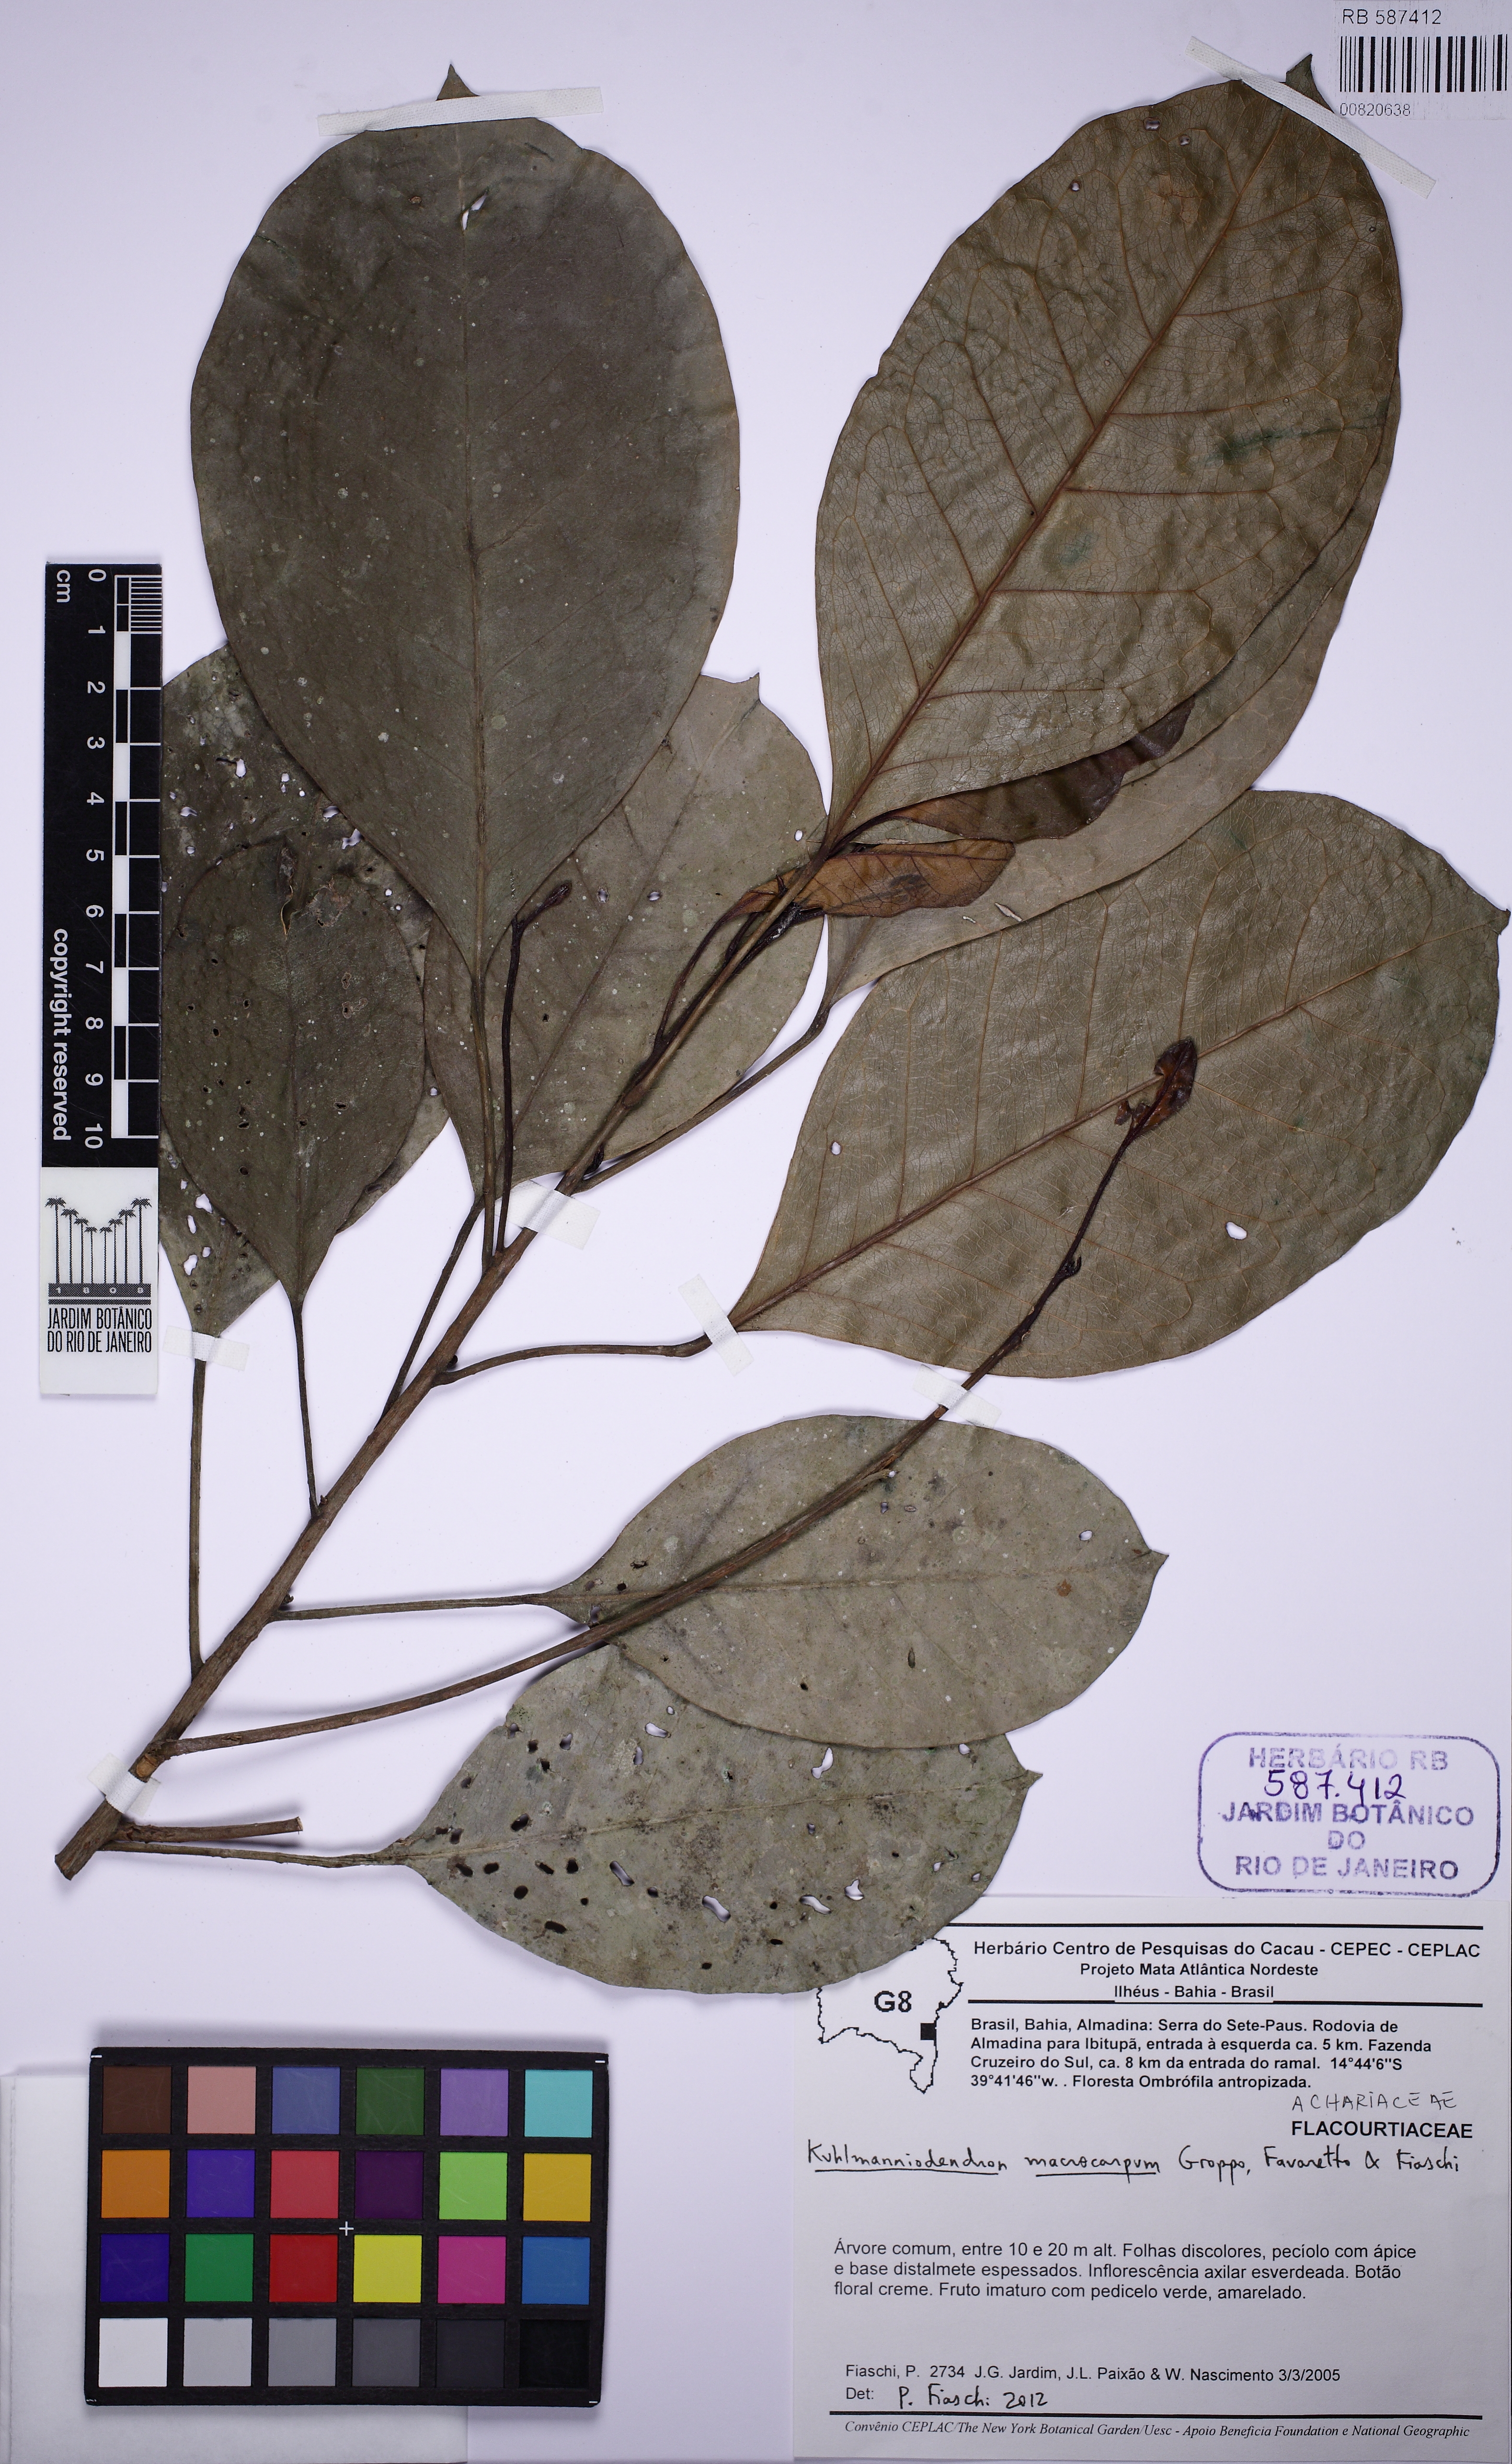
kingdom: Plantae
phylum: Tracheophyta
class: Magnoliopsida
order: Malpighiales
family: Achariaceae
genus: Kuhlmanniodendron
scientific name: Kuhlmanniodendron macrocarpum
